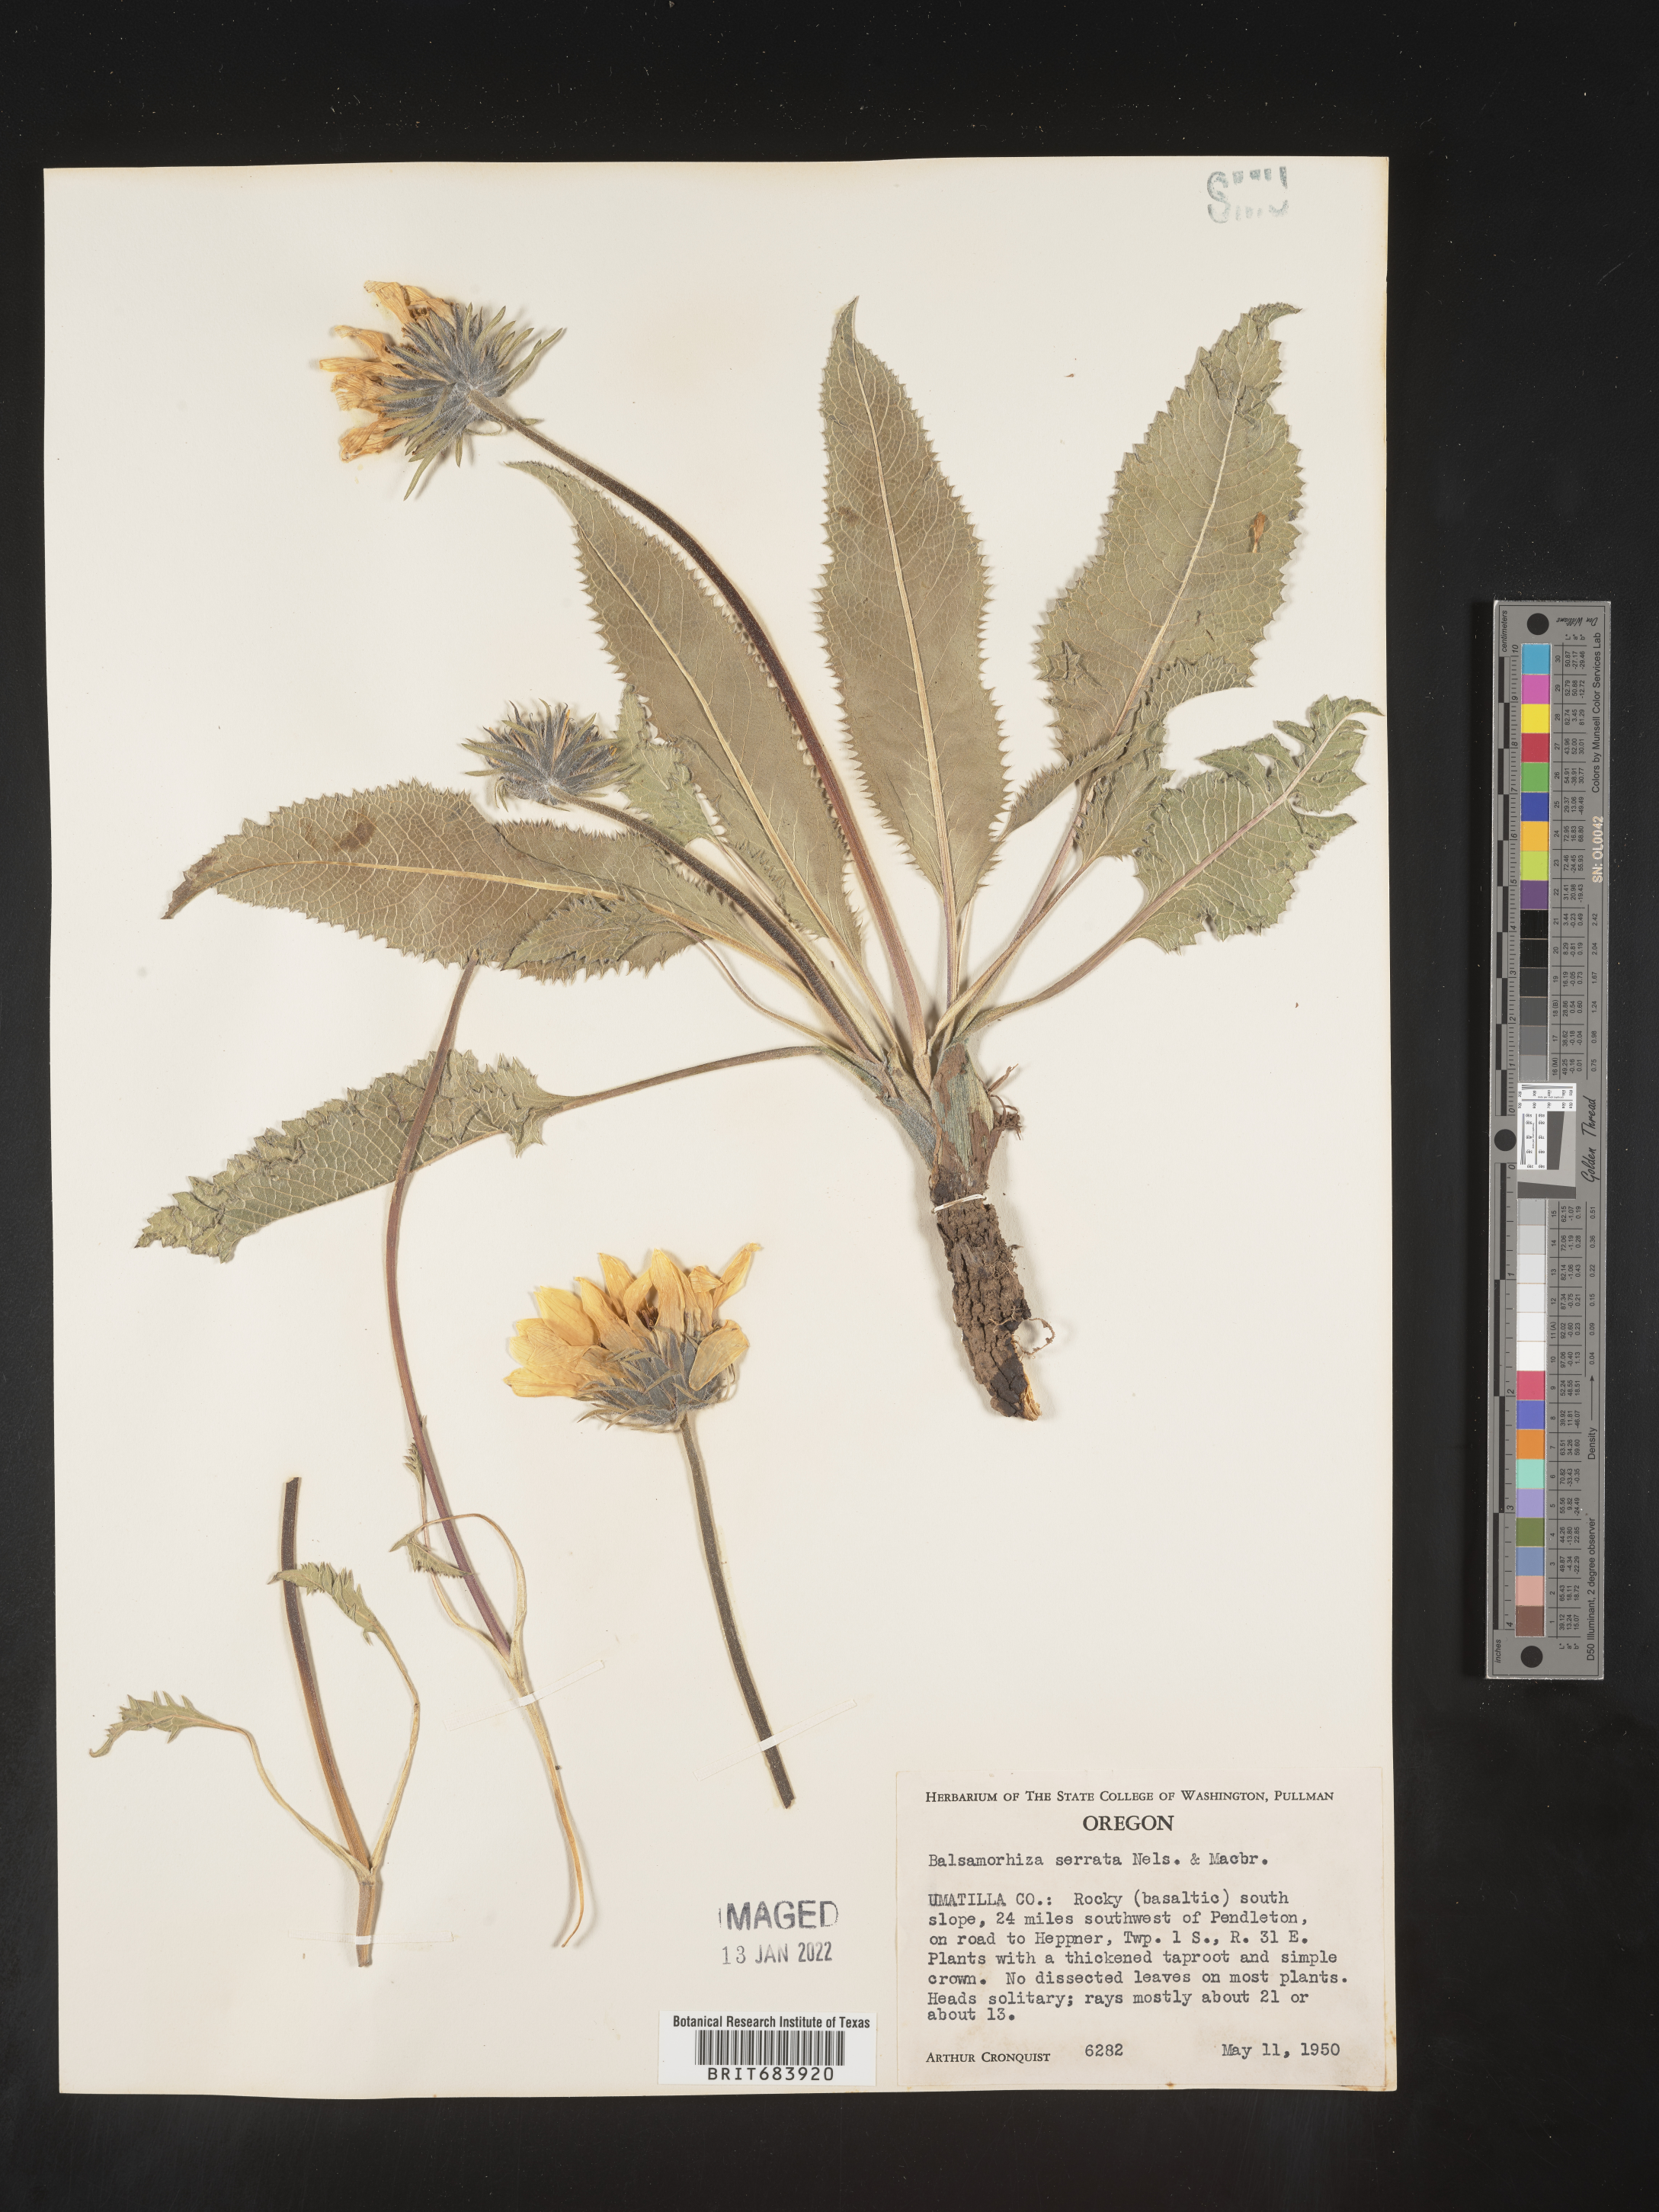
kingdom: Plantae
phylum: Tracheophyta
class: Magnoliopsida
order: Asterales
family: Asteraceae
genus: Balsamorhiza
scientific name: Balsamorhiza serrata
